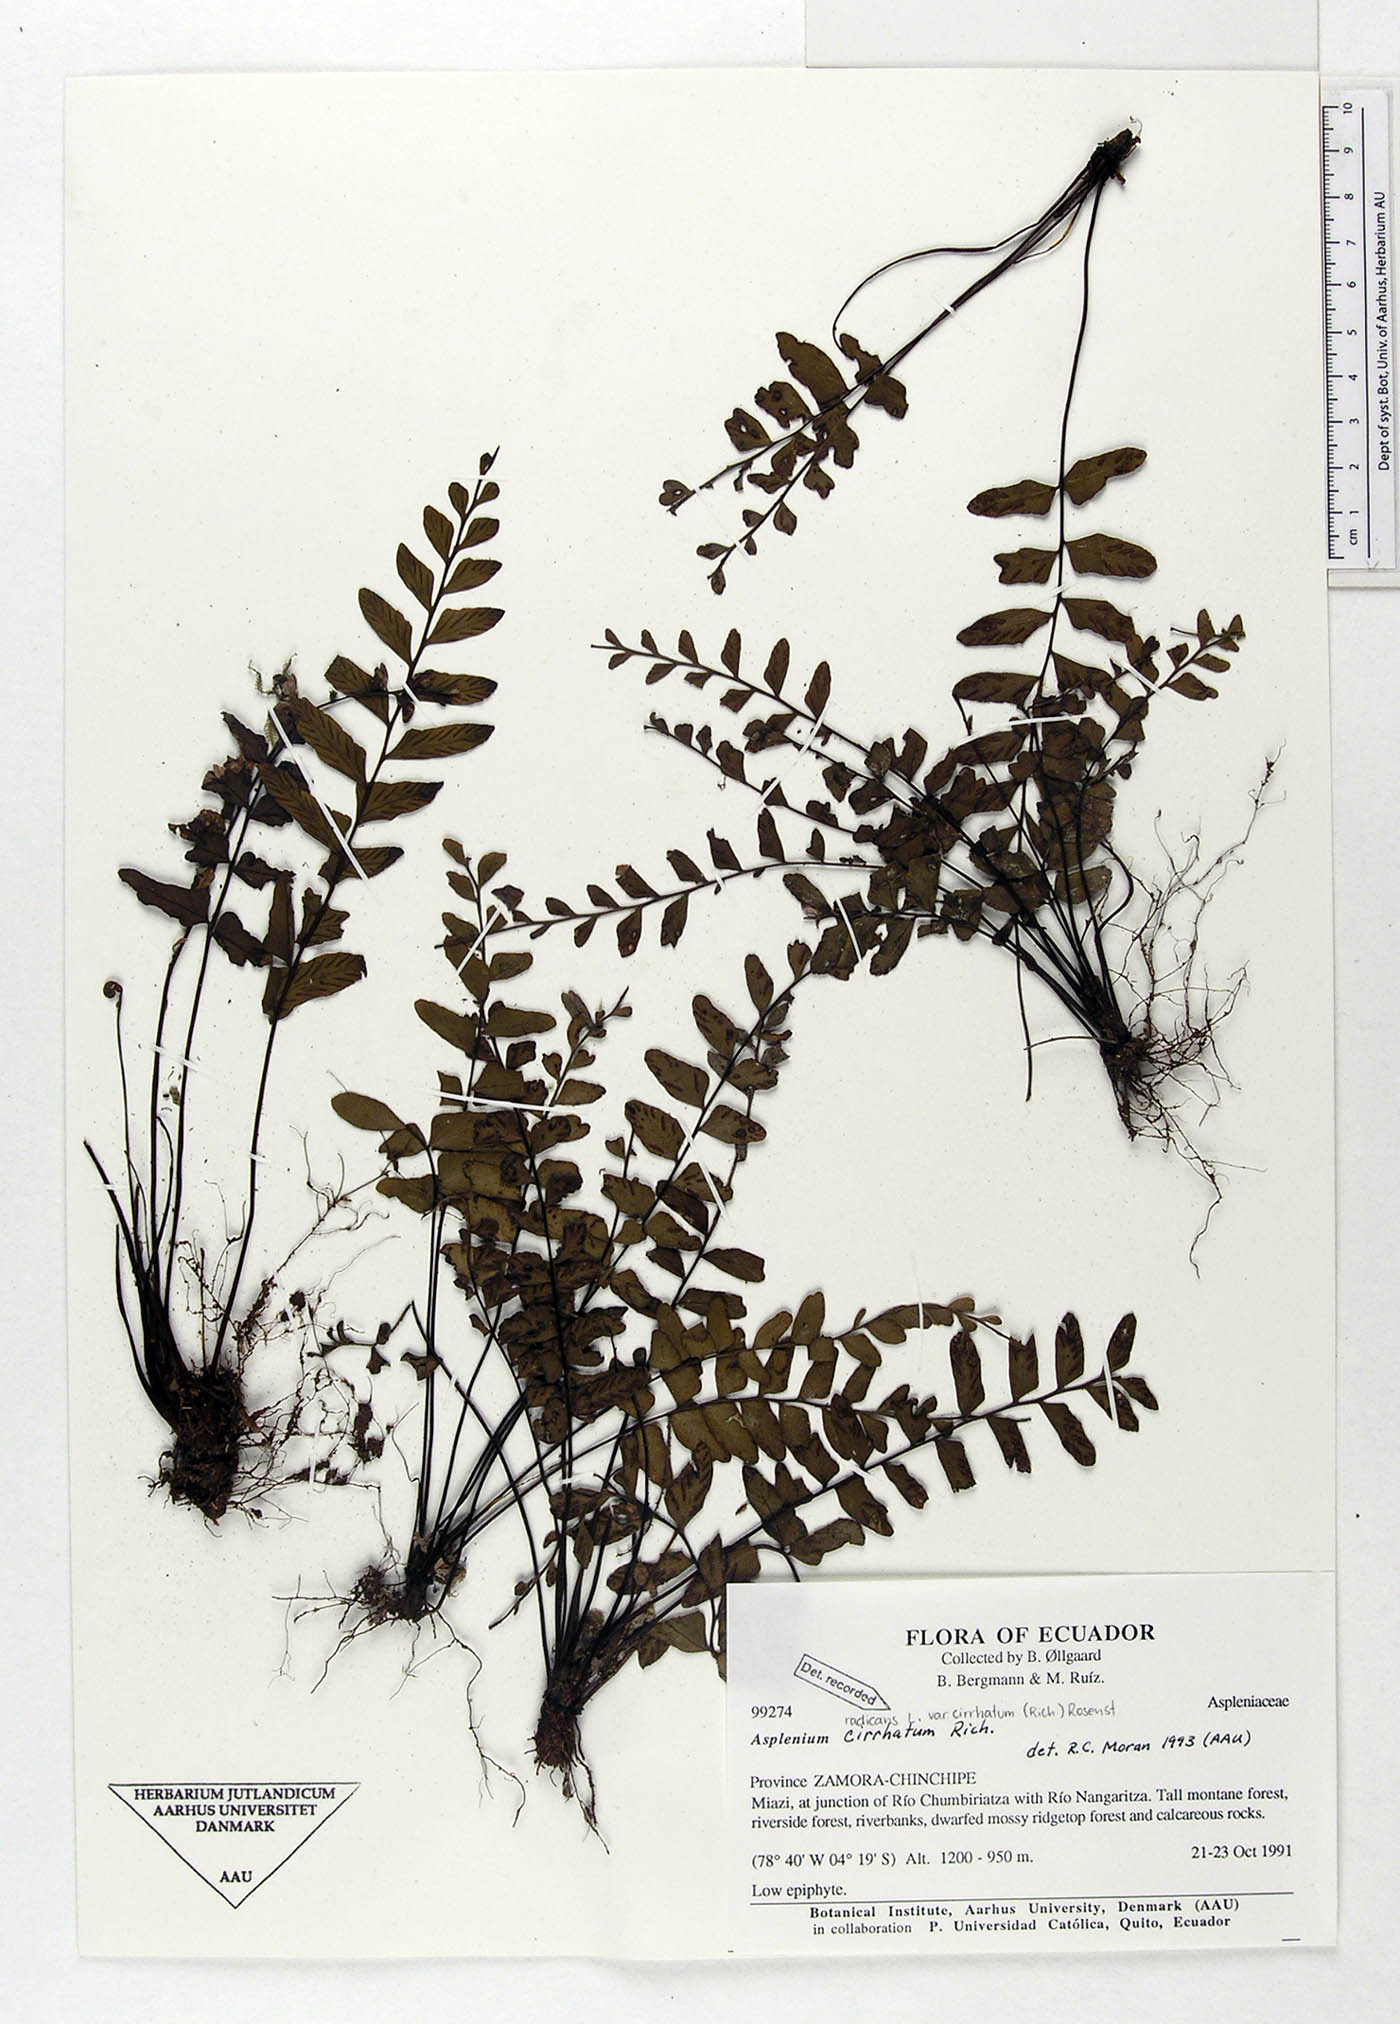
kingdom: Plantae
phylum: Tracheophyta
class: Polypodiopsida
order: Polypodiales
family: Aspleniaceae
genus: Asplenium
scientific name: Asplenium cirrhatum
